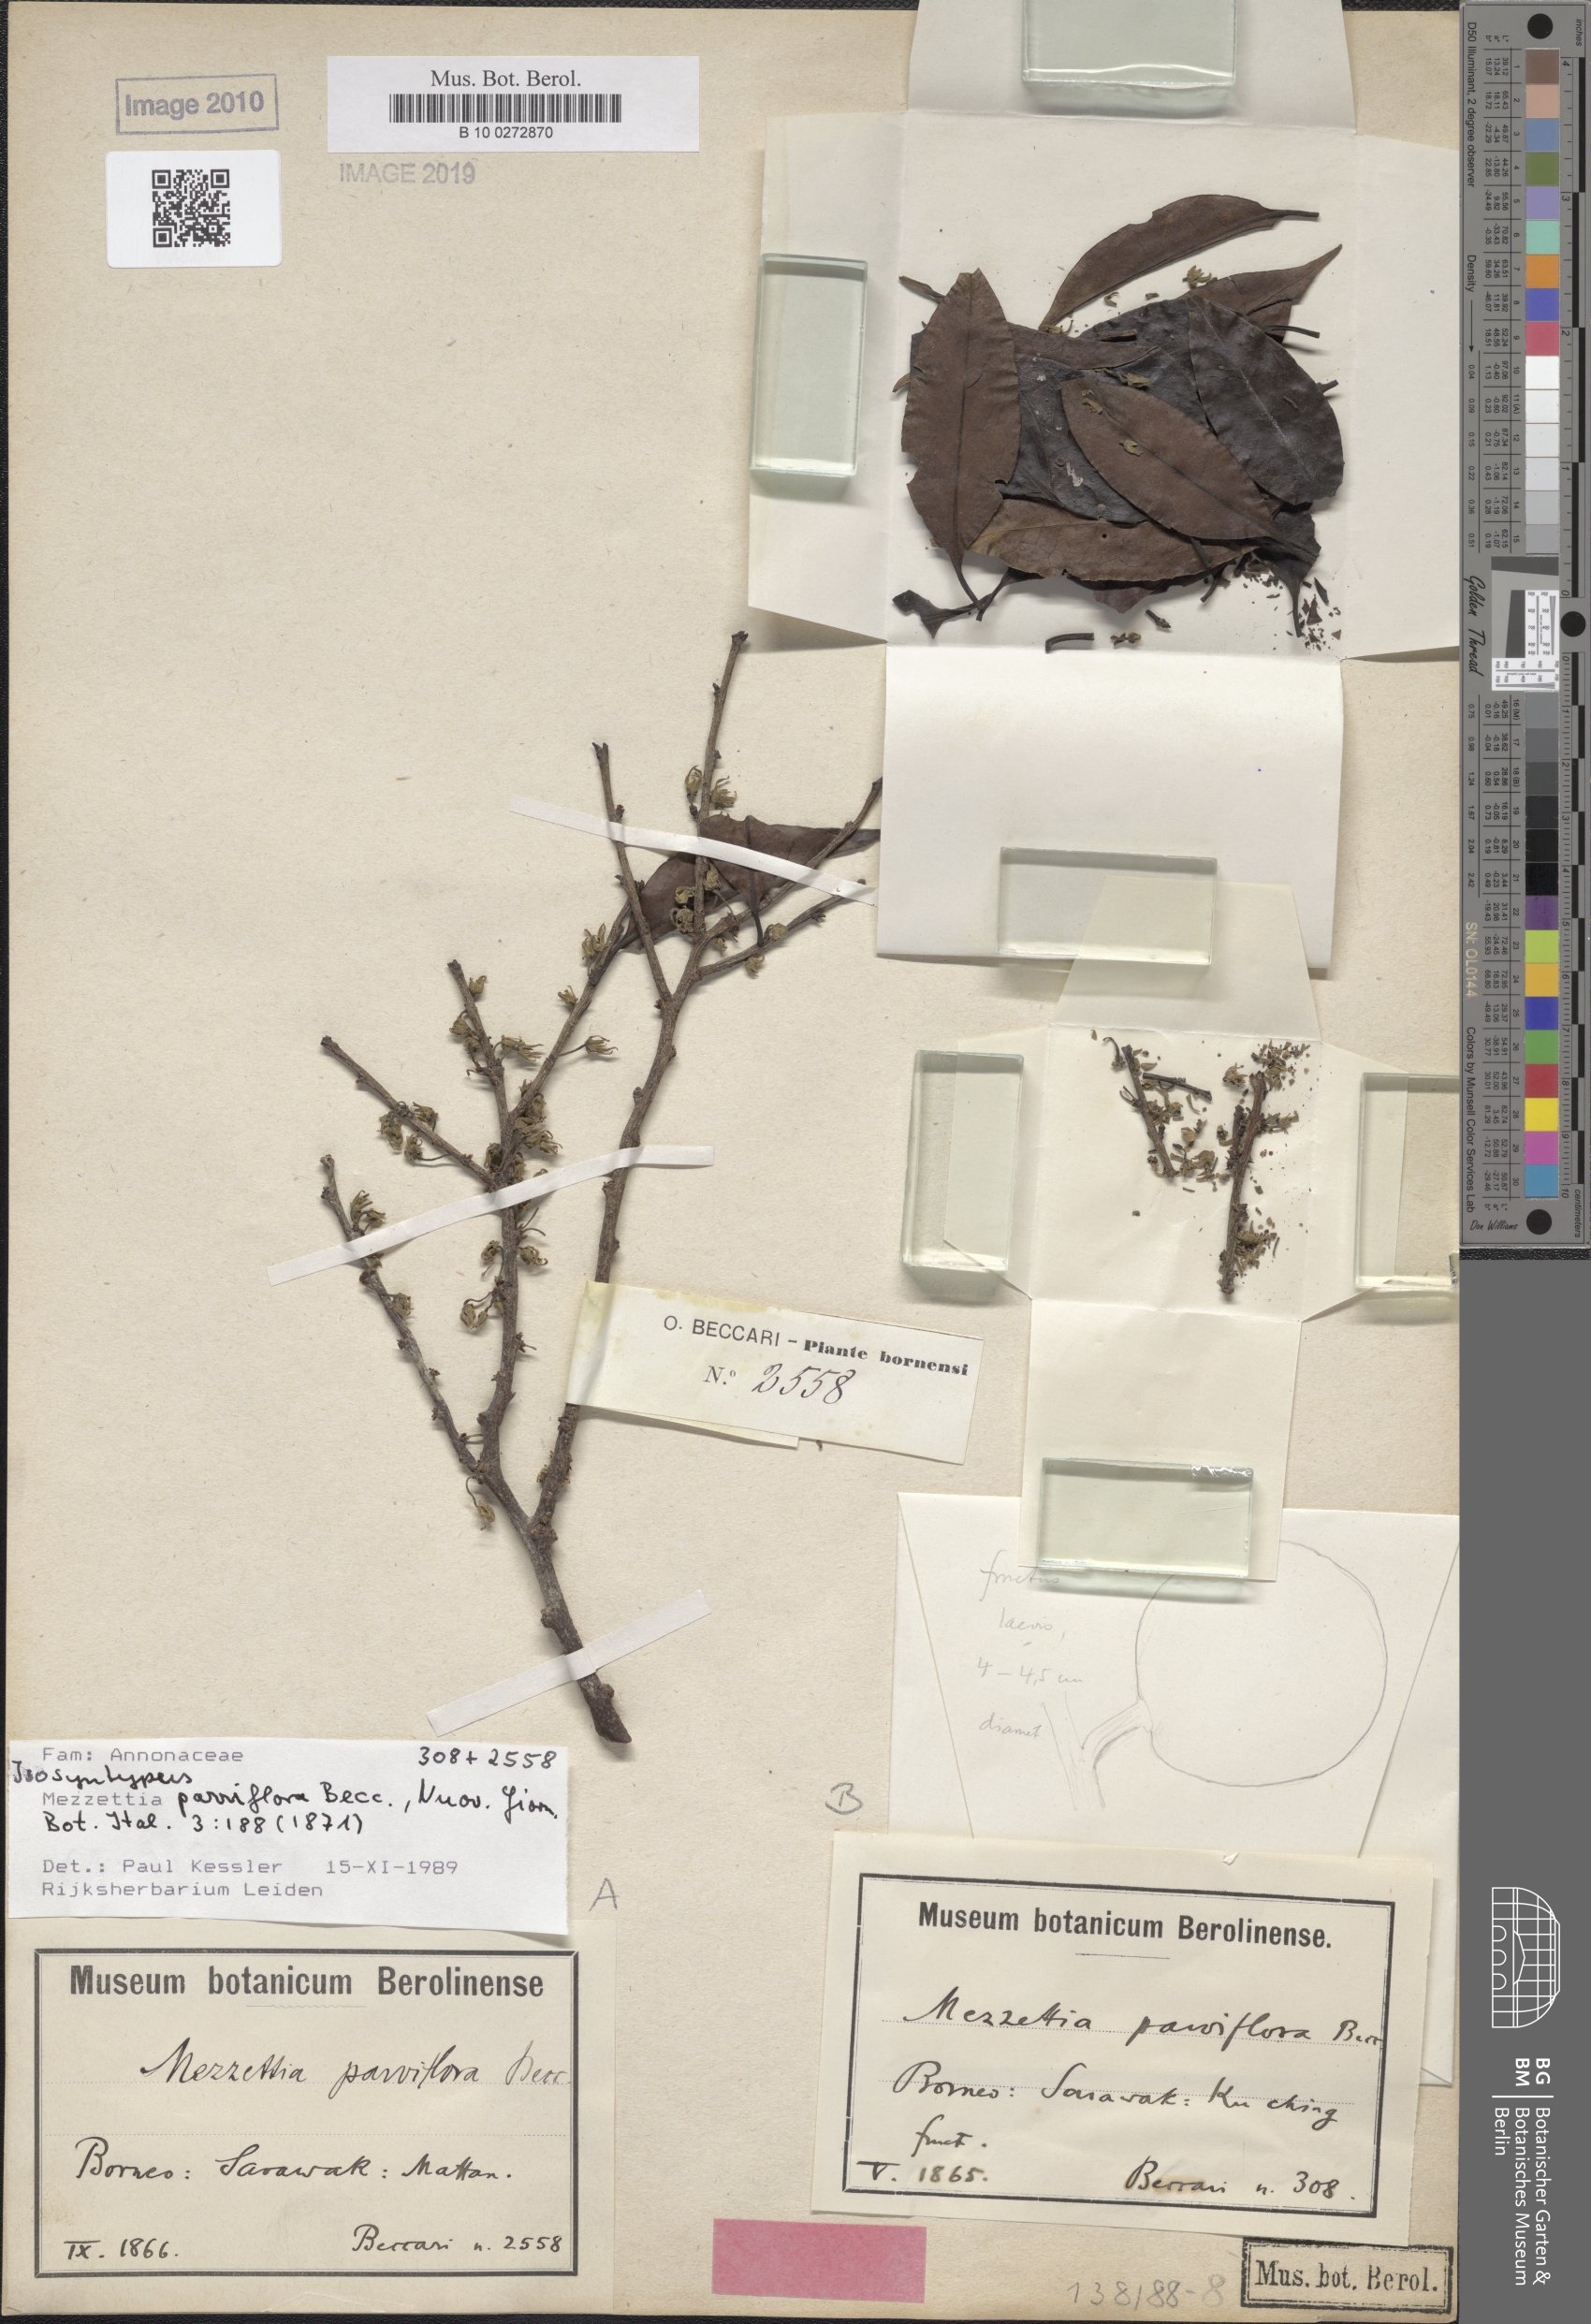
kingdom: Plantae
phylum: Tracheophyta
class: Magnoliopsida
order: Magnoliales
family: Annonaceae
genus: Mezzettia
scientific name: Mezzettia parviflora
